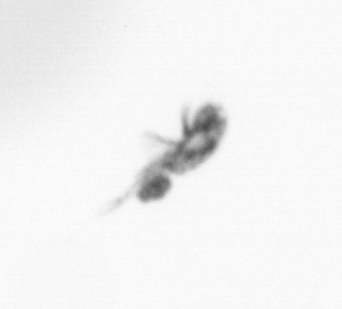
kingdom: Animalia
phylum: Arthropoda
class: Copepoda
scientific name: Copepoda
